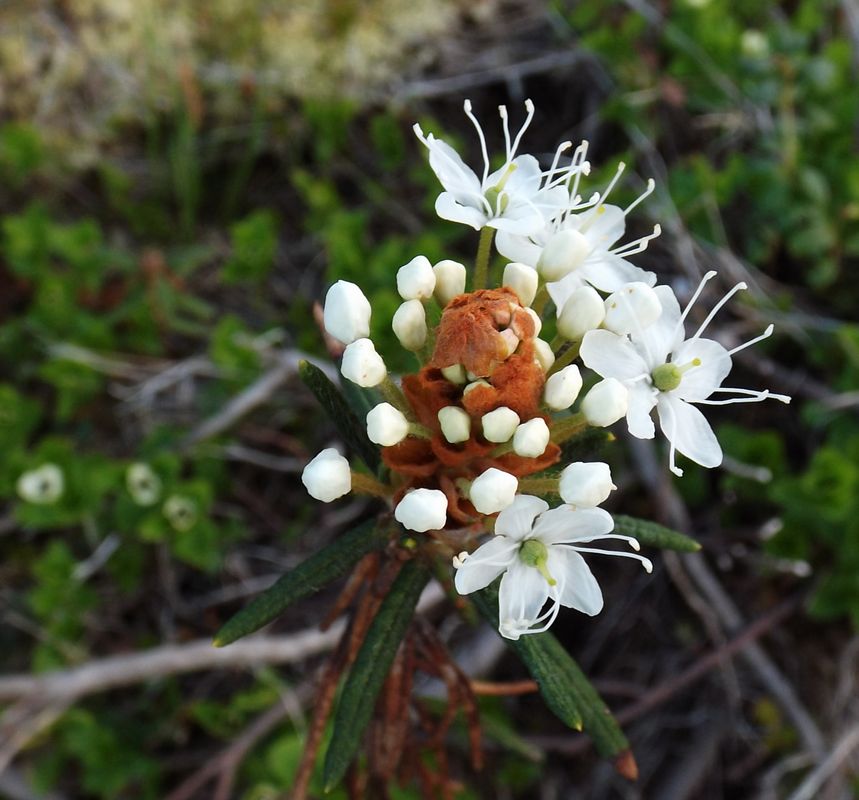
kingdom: Plantae
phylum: Tracheophyta
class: Magnoliopsida
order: Ericales
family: Ericaceae
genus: Rhododendron
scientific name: Rhododendron tomentosum
